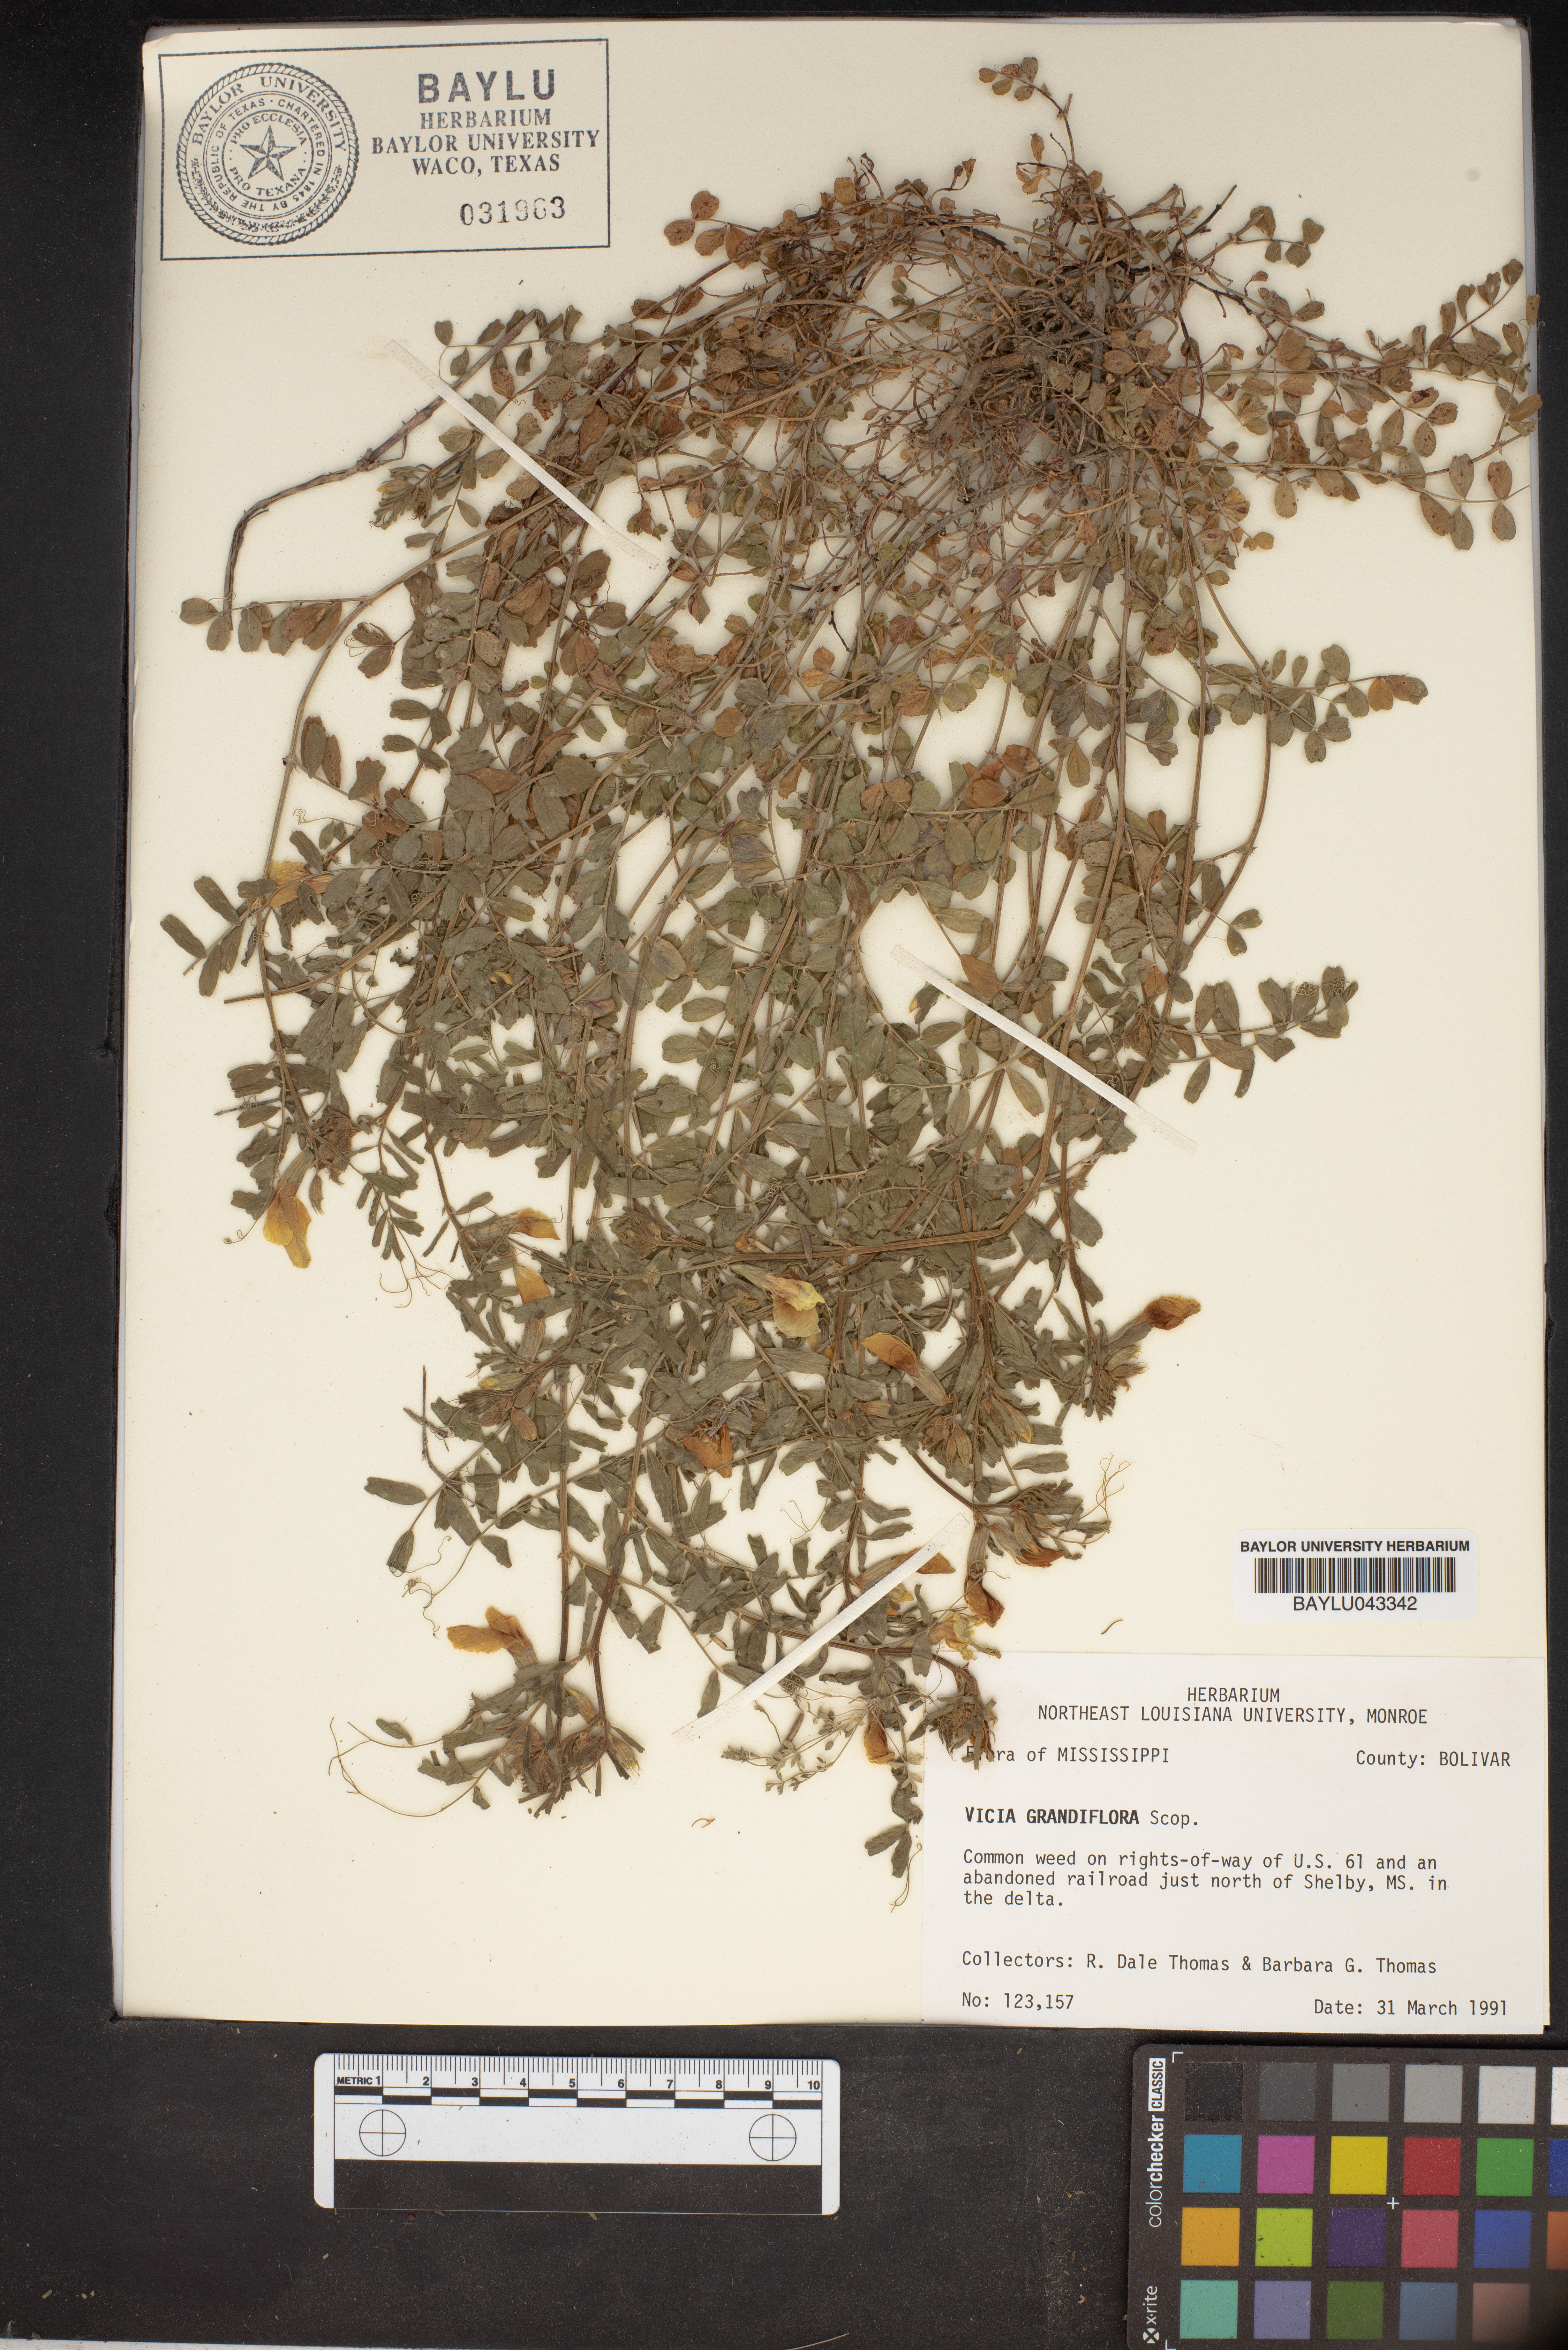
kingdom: Plantae
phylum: Tracheophyta
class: Magnoliopsida
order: Fabales
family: Fabaceae
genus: Vicia
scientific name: Vicia grandiflora
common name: Large yellow vetch
